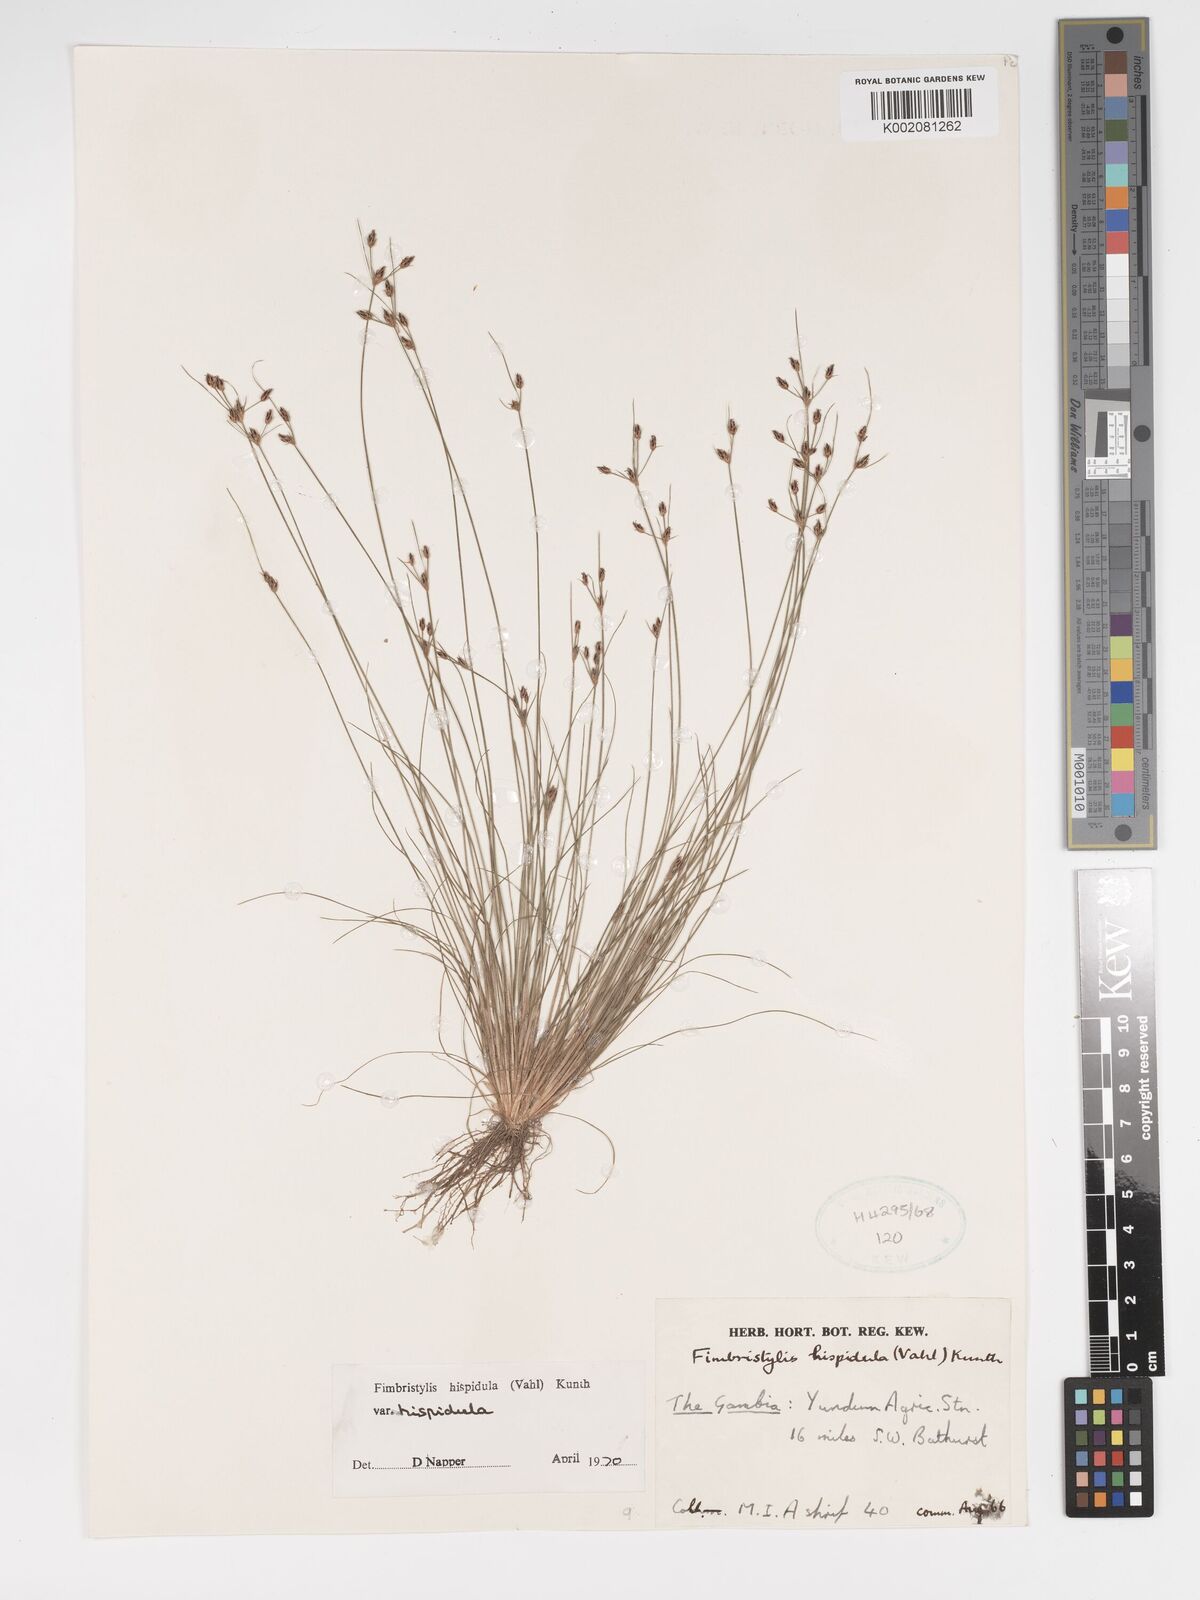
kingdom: Plantae
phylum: Tracheophyta
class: Liliopsida
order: Poales
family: Cyperaceae
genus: Bulbostylis
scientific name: Bulbostylis hispidula
